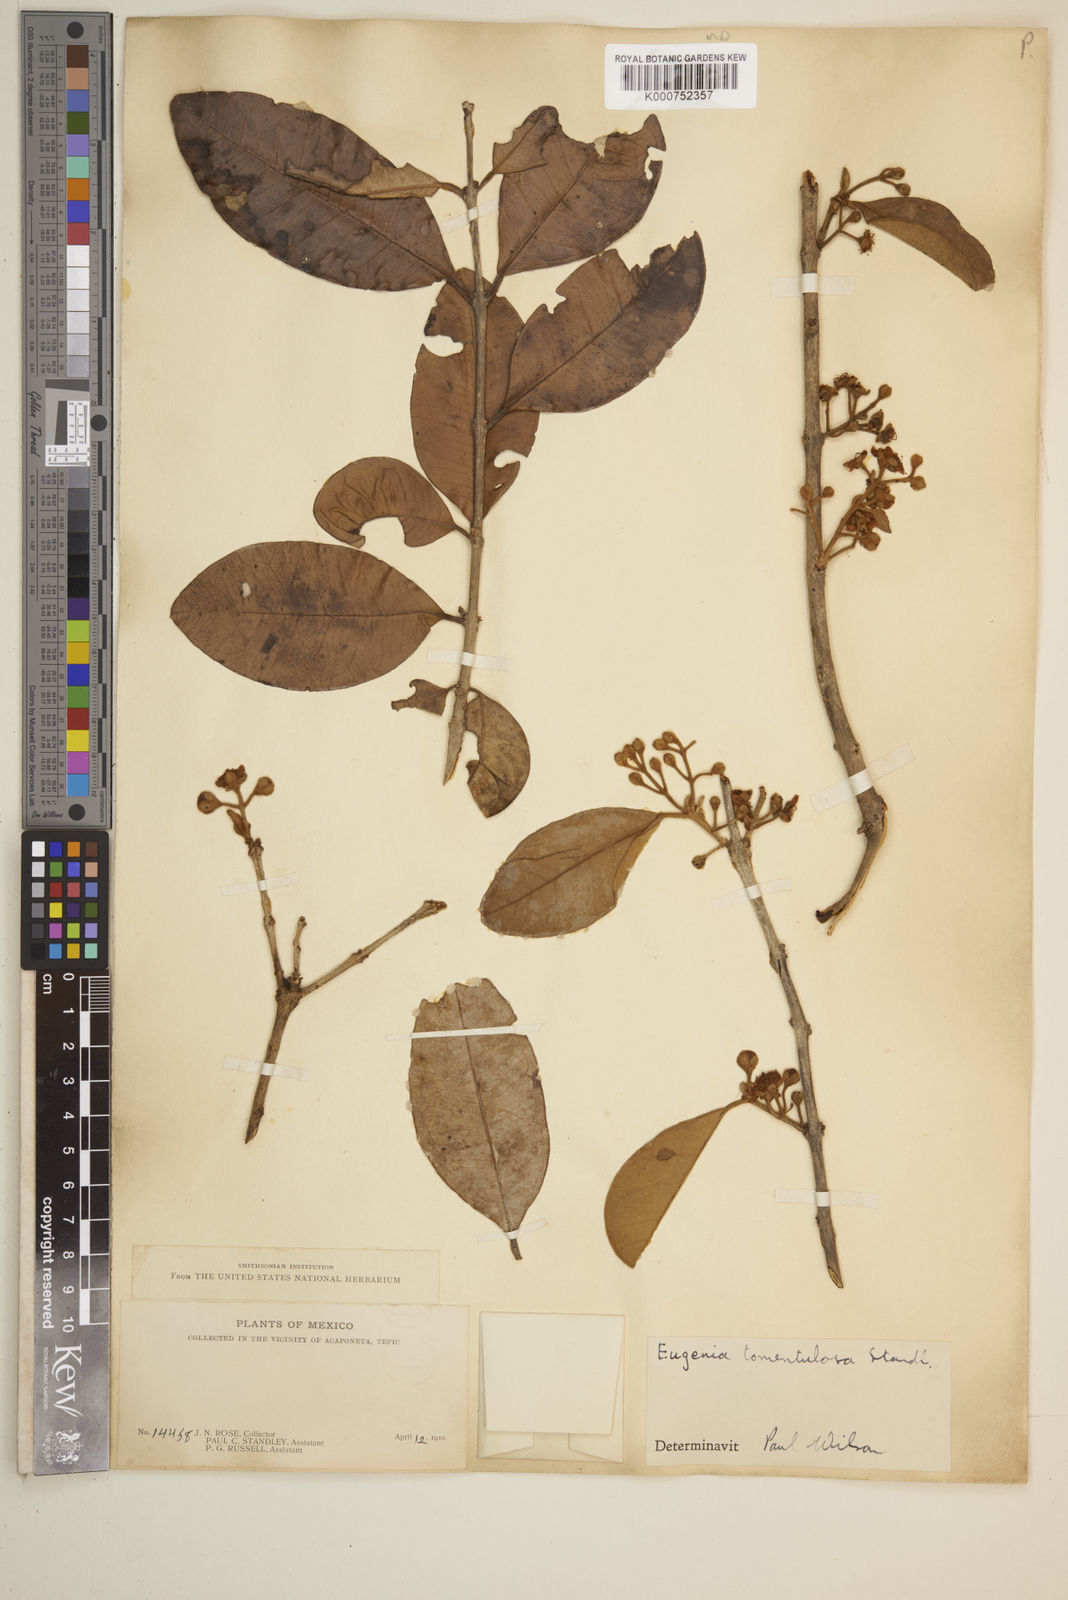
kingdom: Plantae
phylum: Tracheophyta
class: Magnoliopsida
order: Myrtales
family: Myrtaceae
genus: Eugenia
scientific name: Eugenia salamensis
